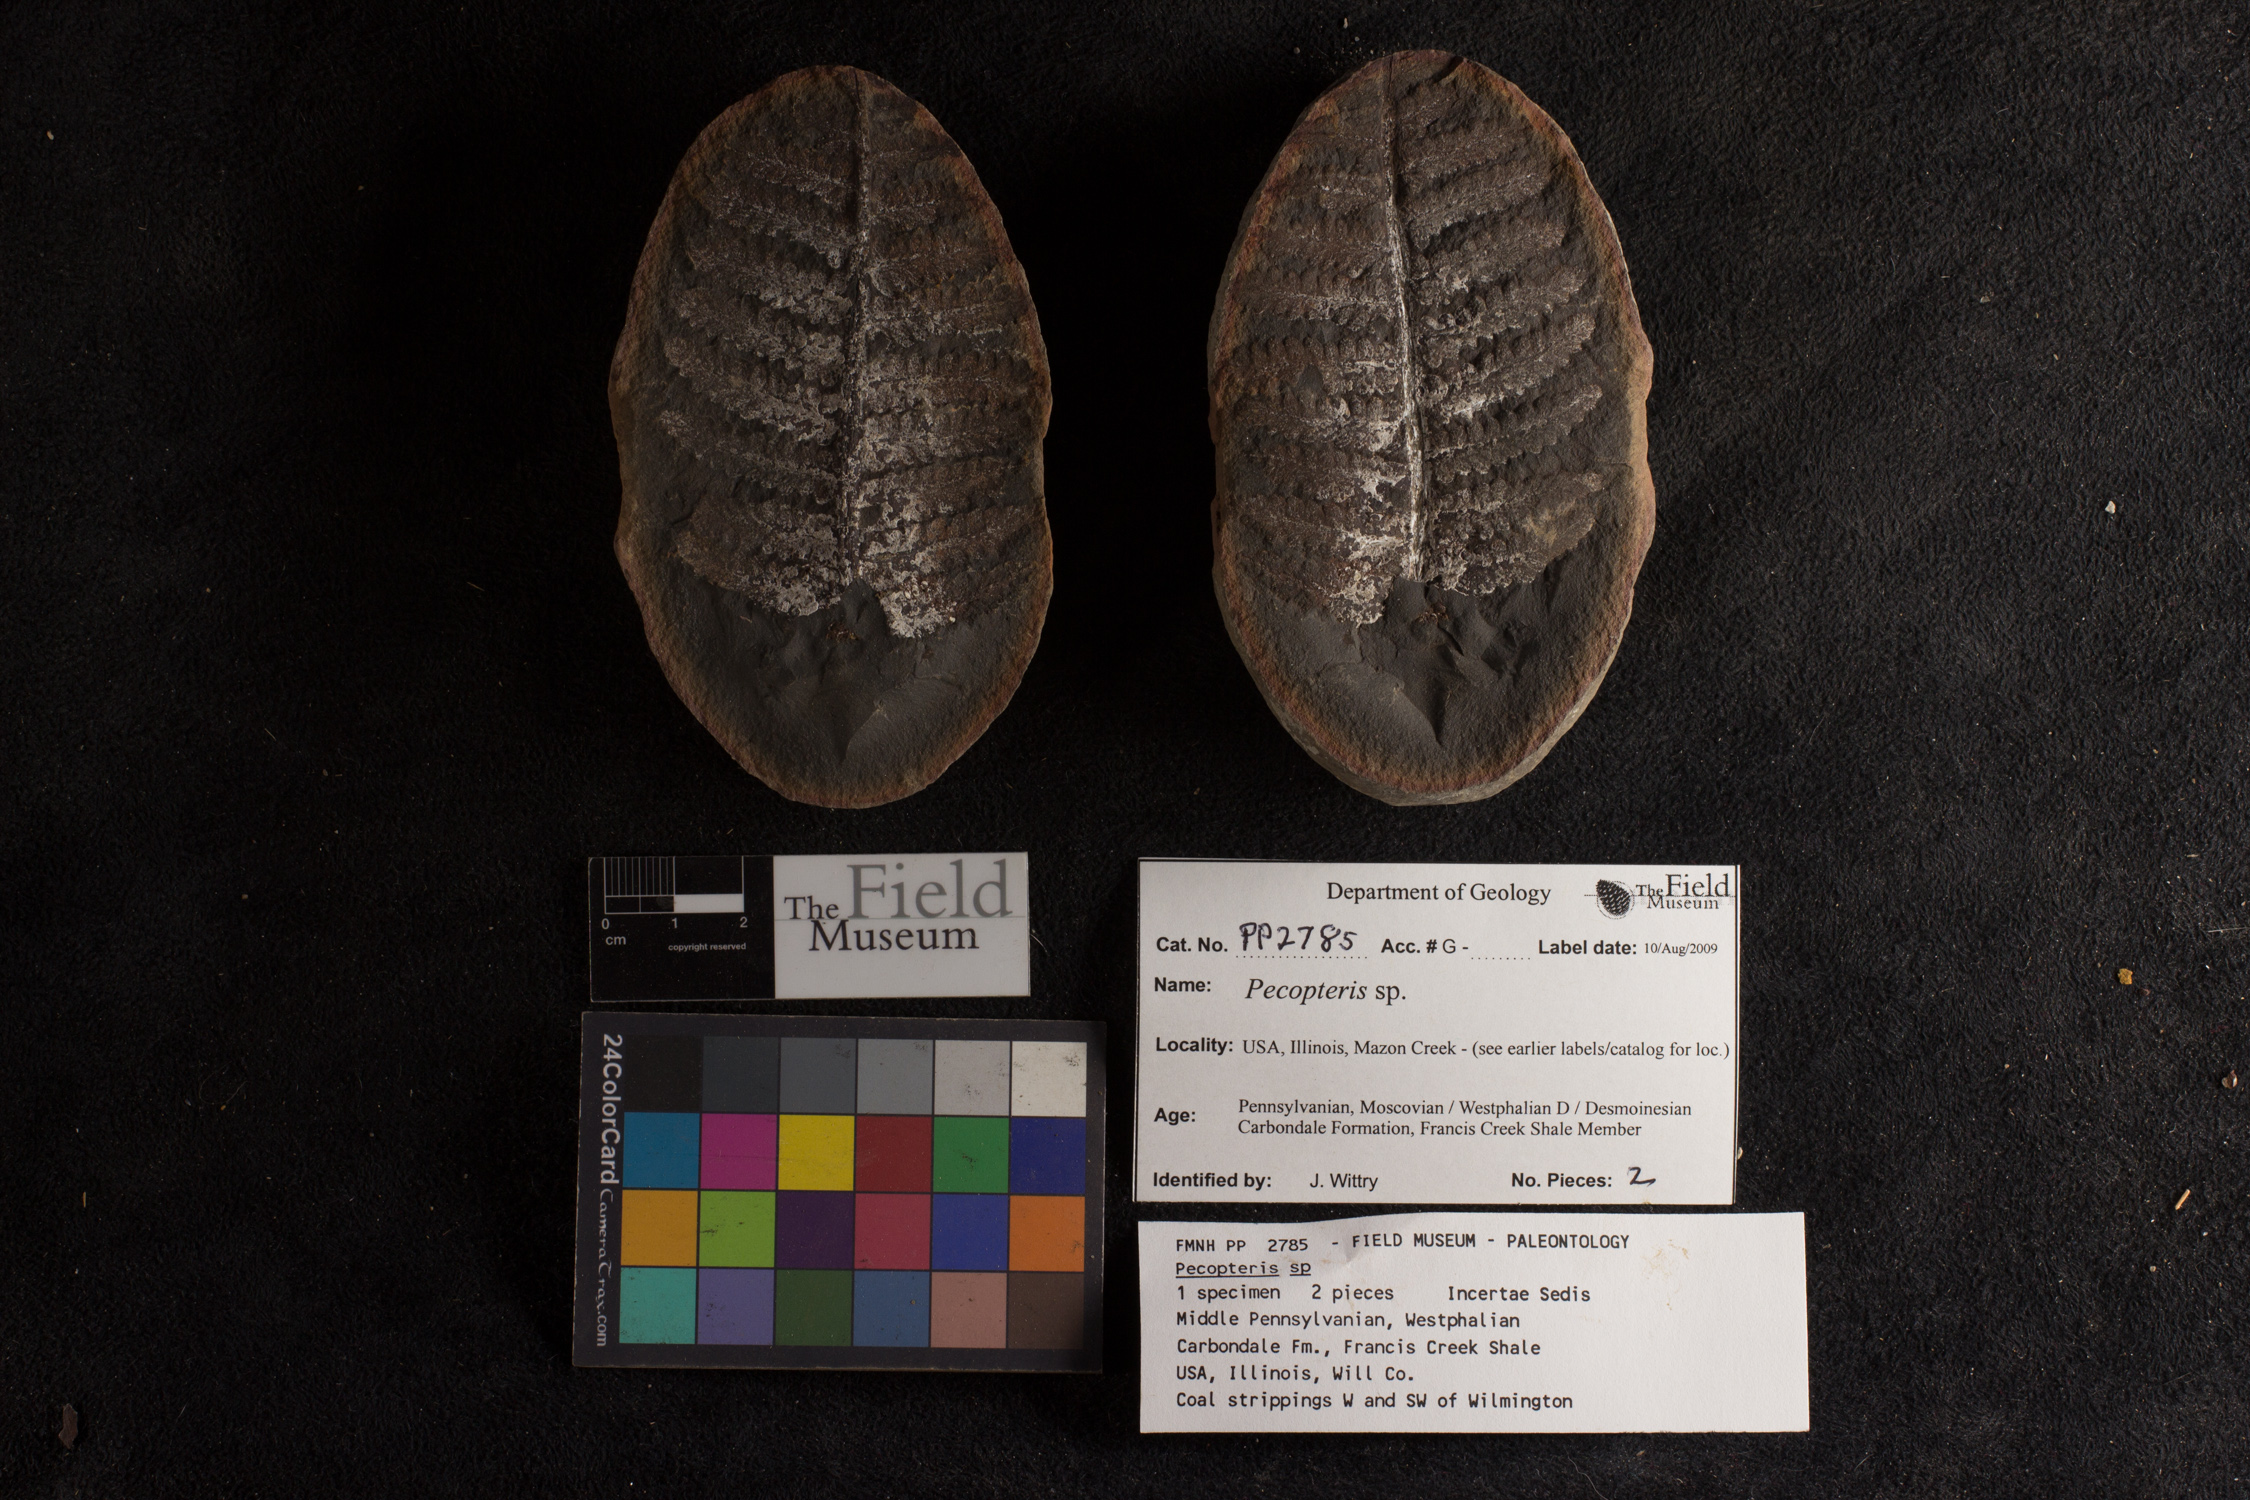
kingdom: Plantae
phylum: Tracheophyta
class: Polypodiopsida
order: Marattiales
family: Asterothecaceae
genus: Pecopteris
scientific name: Pecopteris
